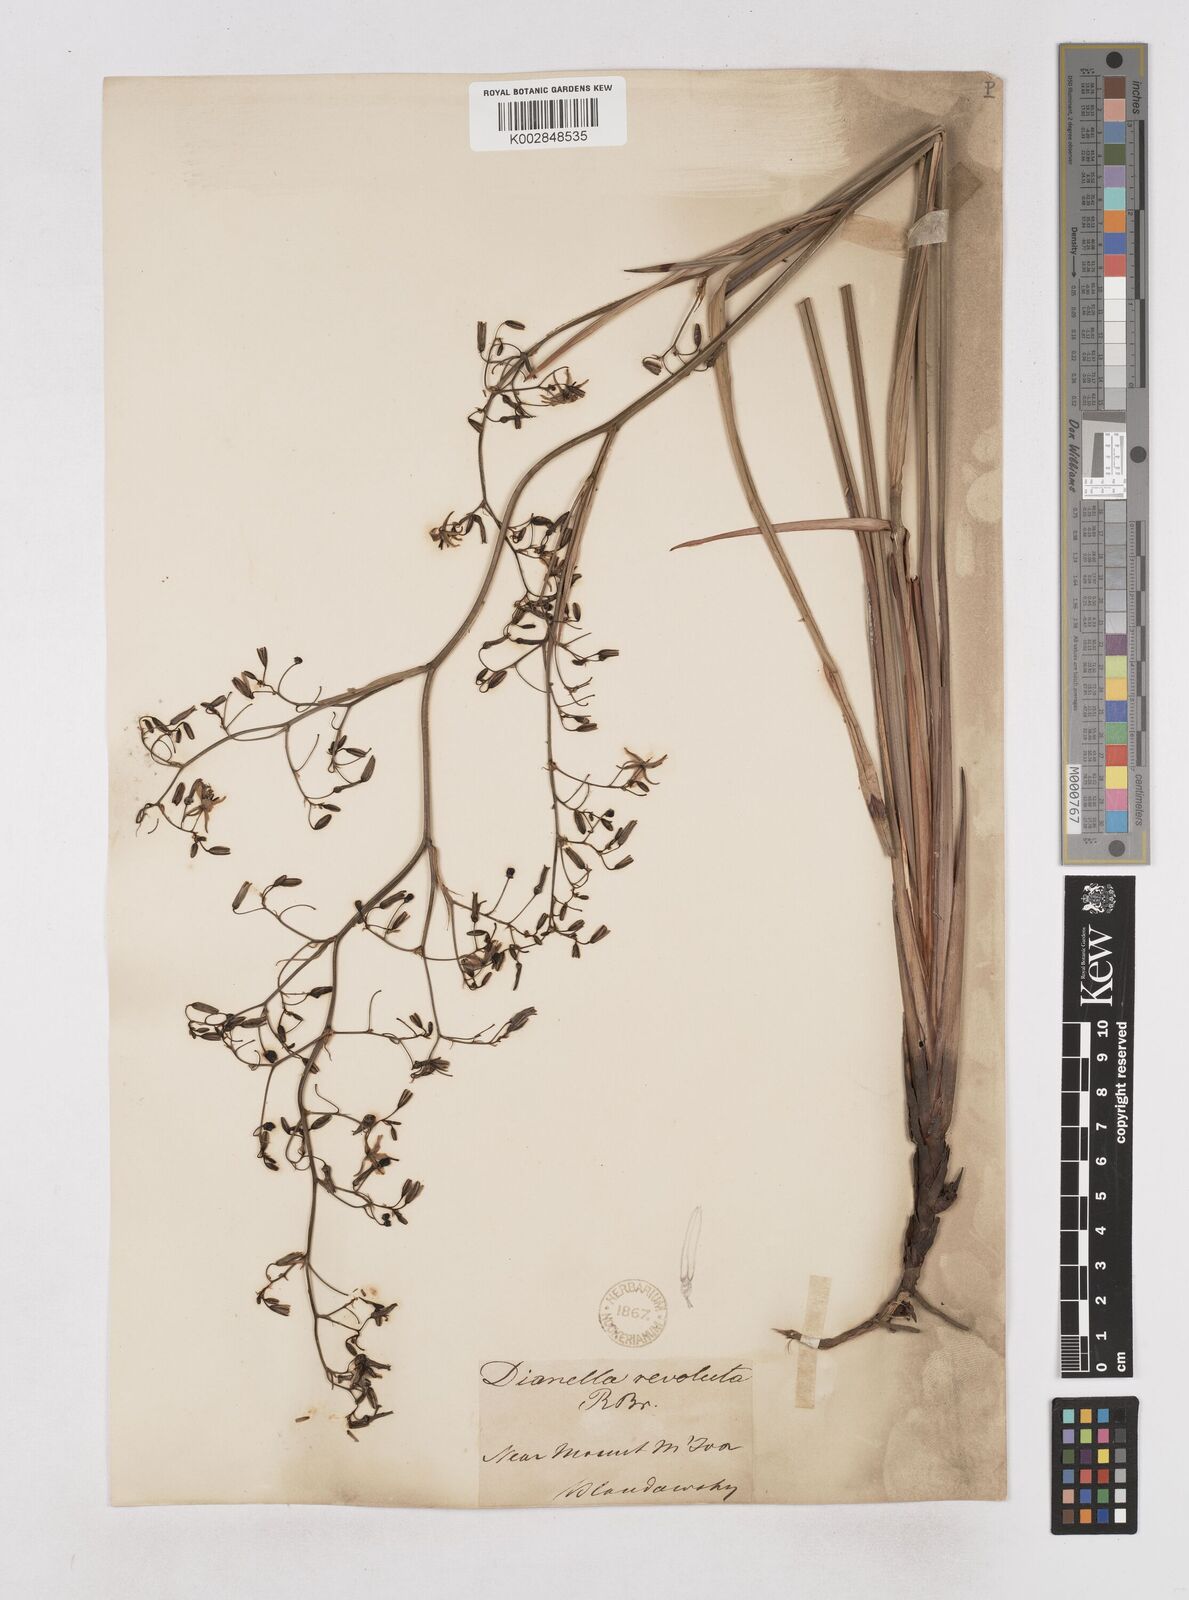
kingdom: Plantae
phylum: Tracheophyta
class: Liliopsida
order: Asparagales
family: Asphodelaceae
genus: Dianella
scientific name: Dianella revoluta
